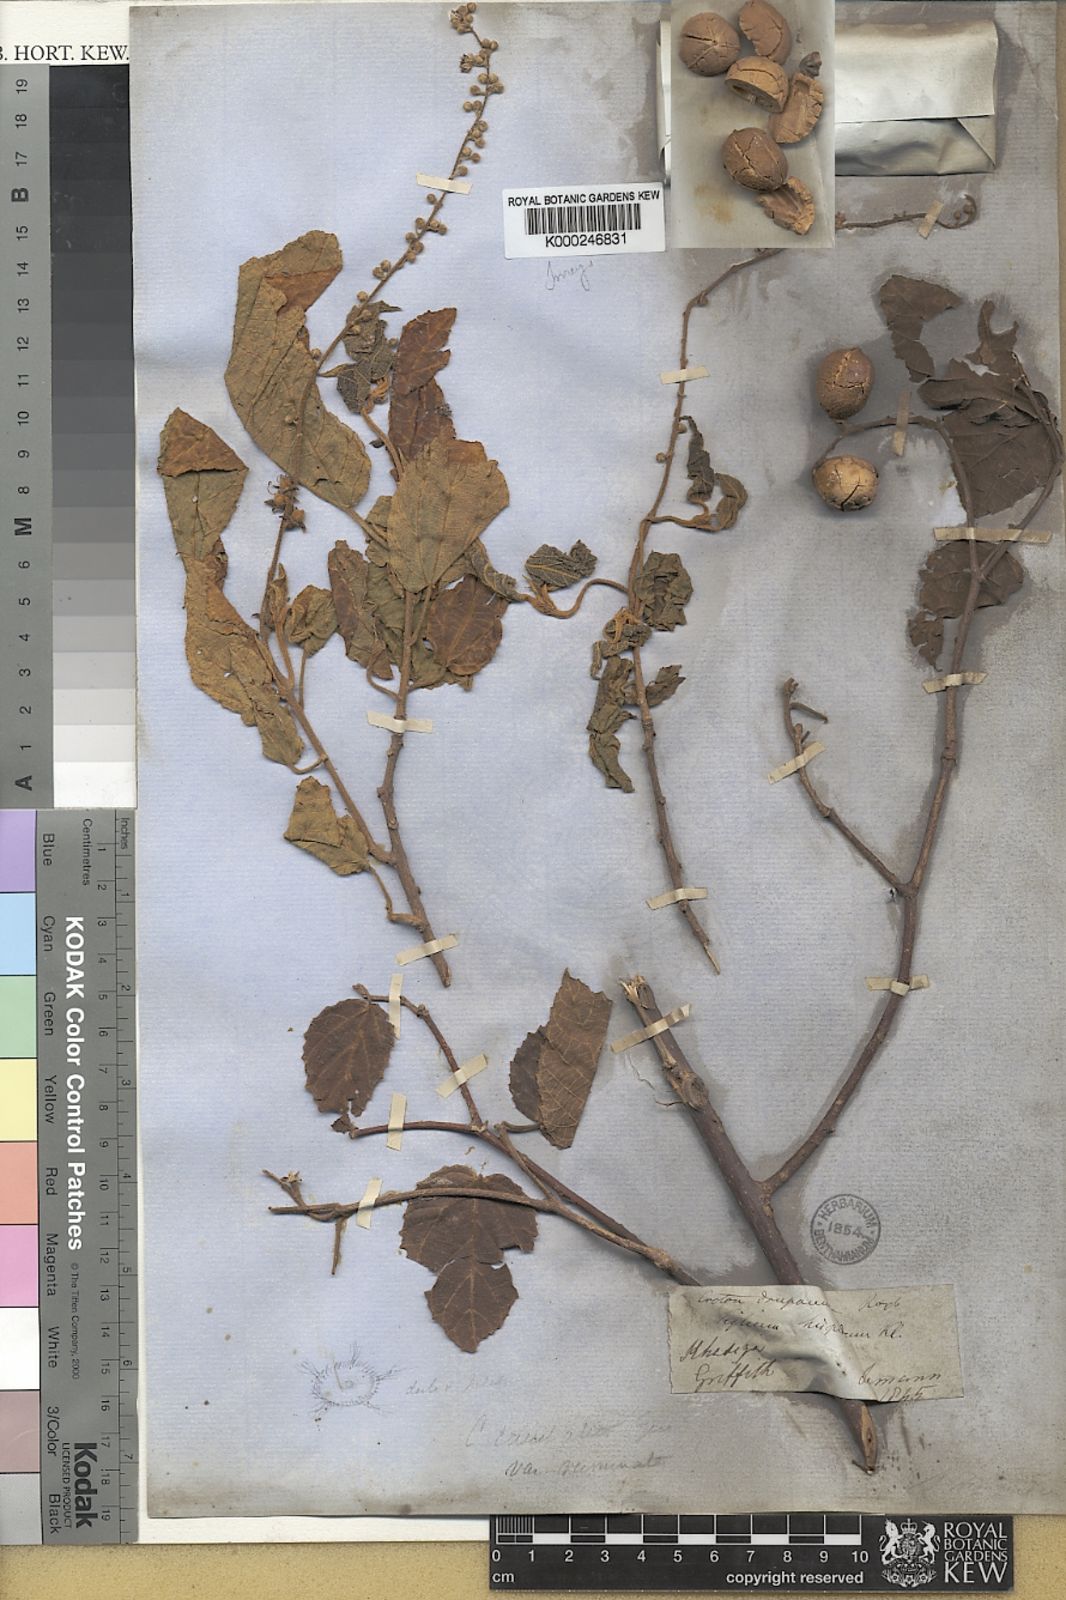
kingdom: Plantae
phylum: Tracheophyta
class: Magnoliopsida
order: Malpighiales
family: Euphorbiaceae
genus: Croton
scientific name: Croton caudatus
